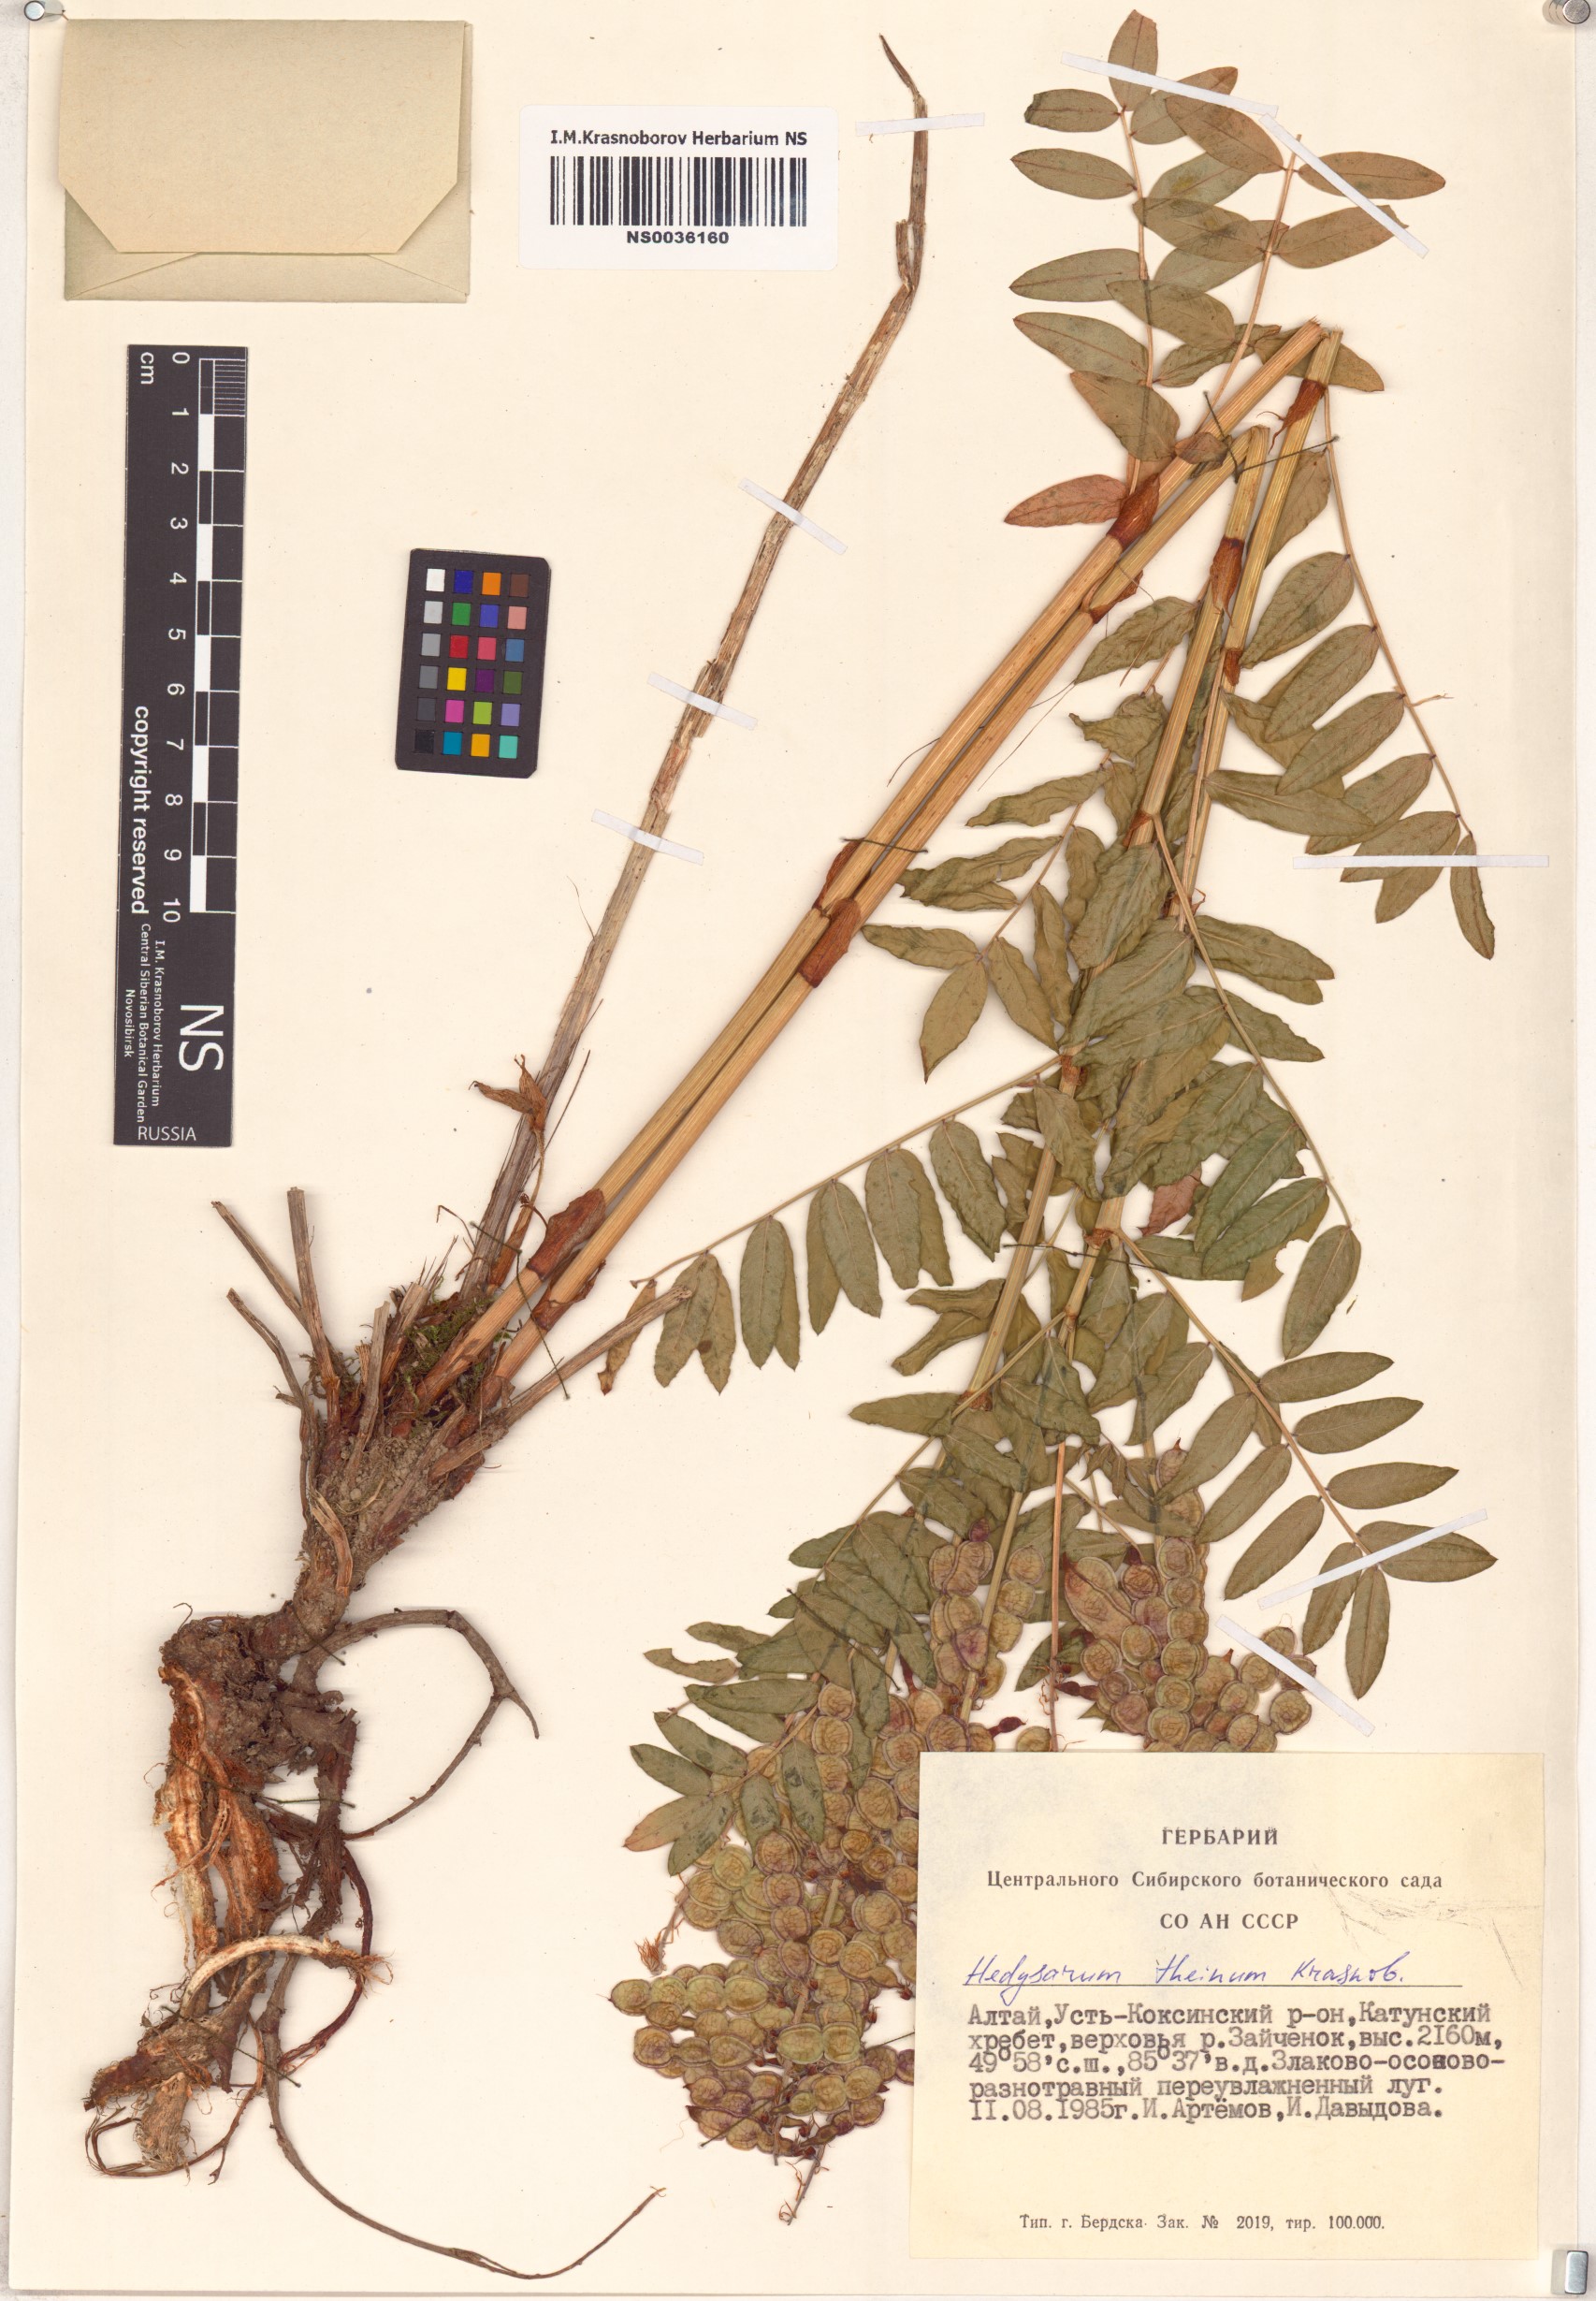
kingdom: Plantae
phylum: Tracheophyta
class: Magnoliopsida
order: Fabales
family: Fabaceae
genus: Hedysarum
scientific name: Hedysarum theinum
